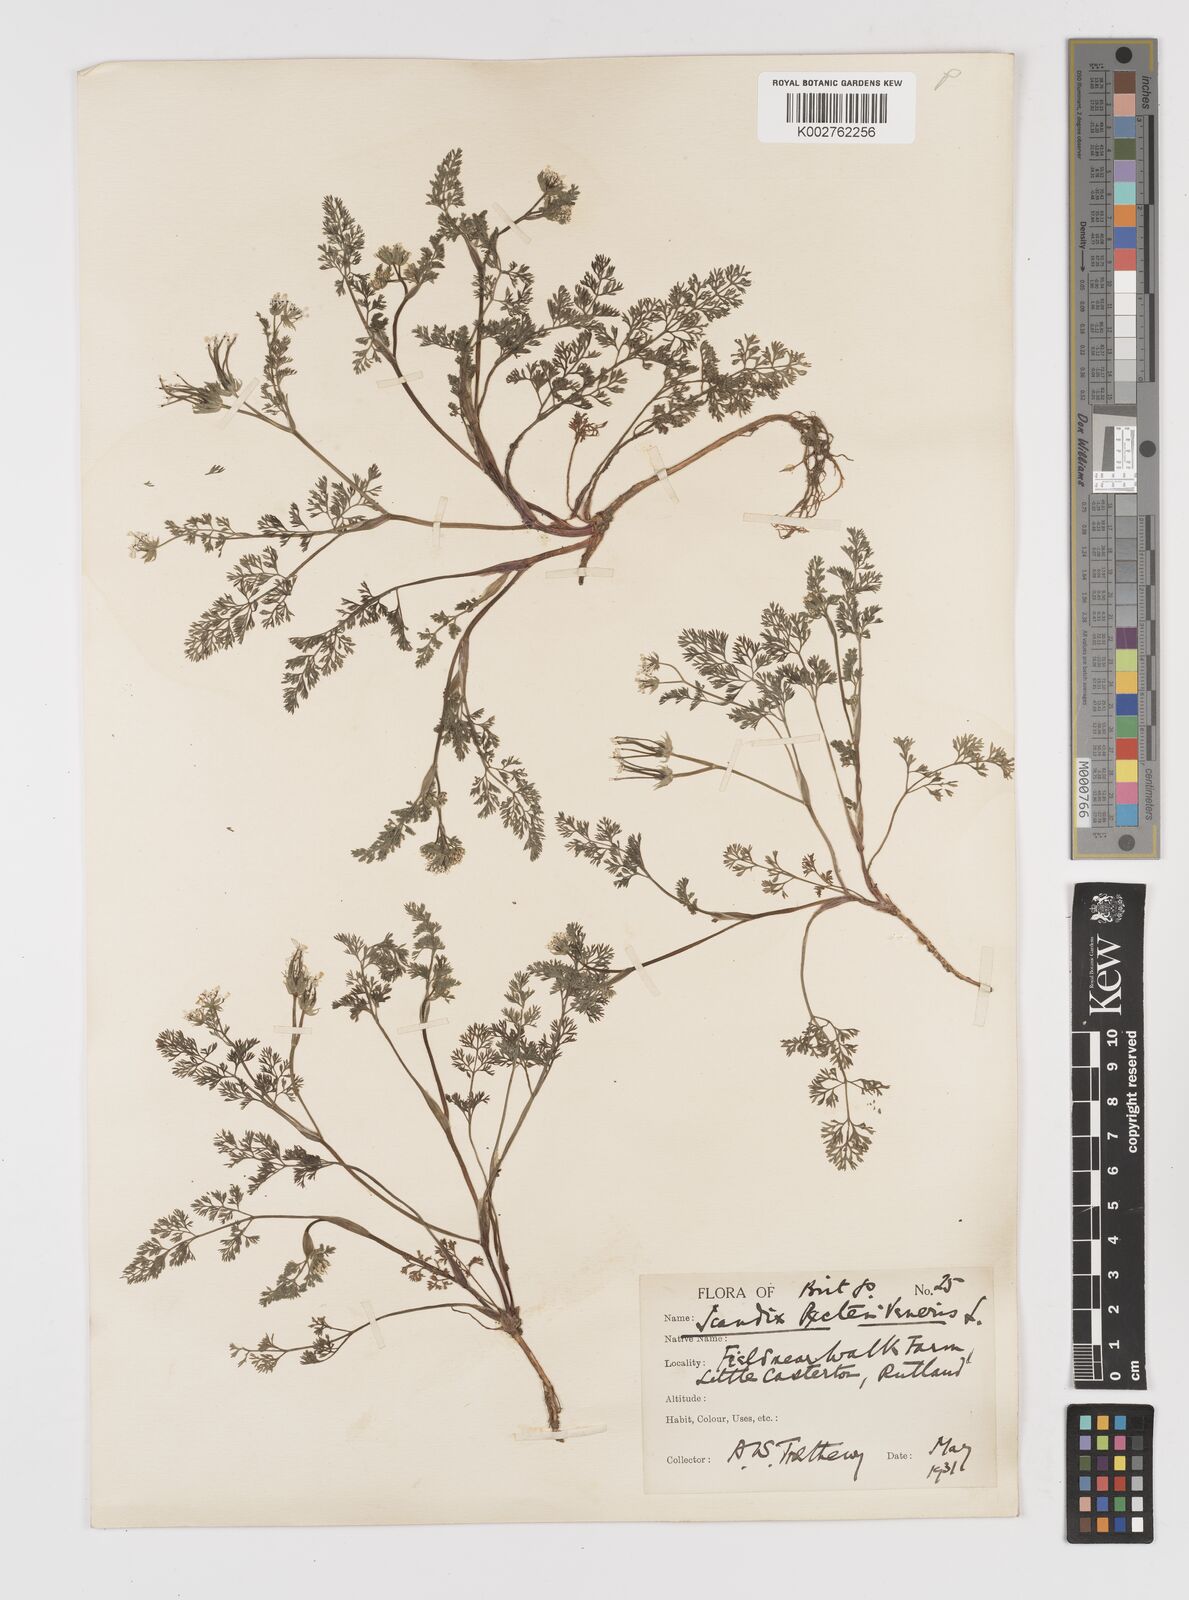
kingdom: Plantae
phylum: Tracheophyta
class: Magnoliopsida
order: Apiales
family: Apiaceae
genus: Scandix
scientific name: Scandix pecten-veneris
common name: Shepherd's-needle
